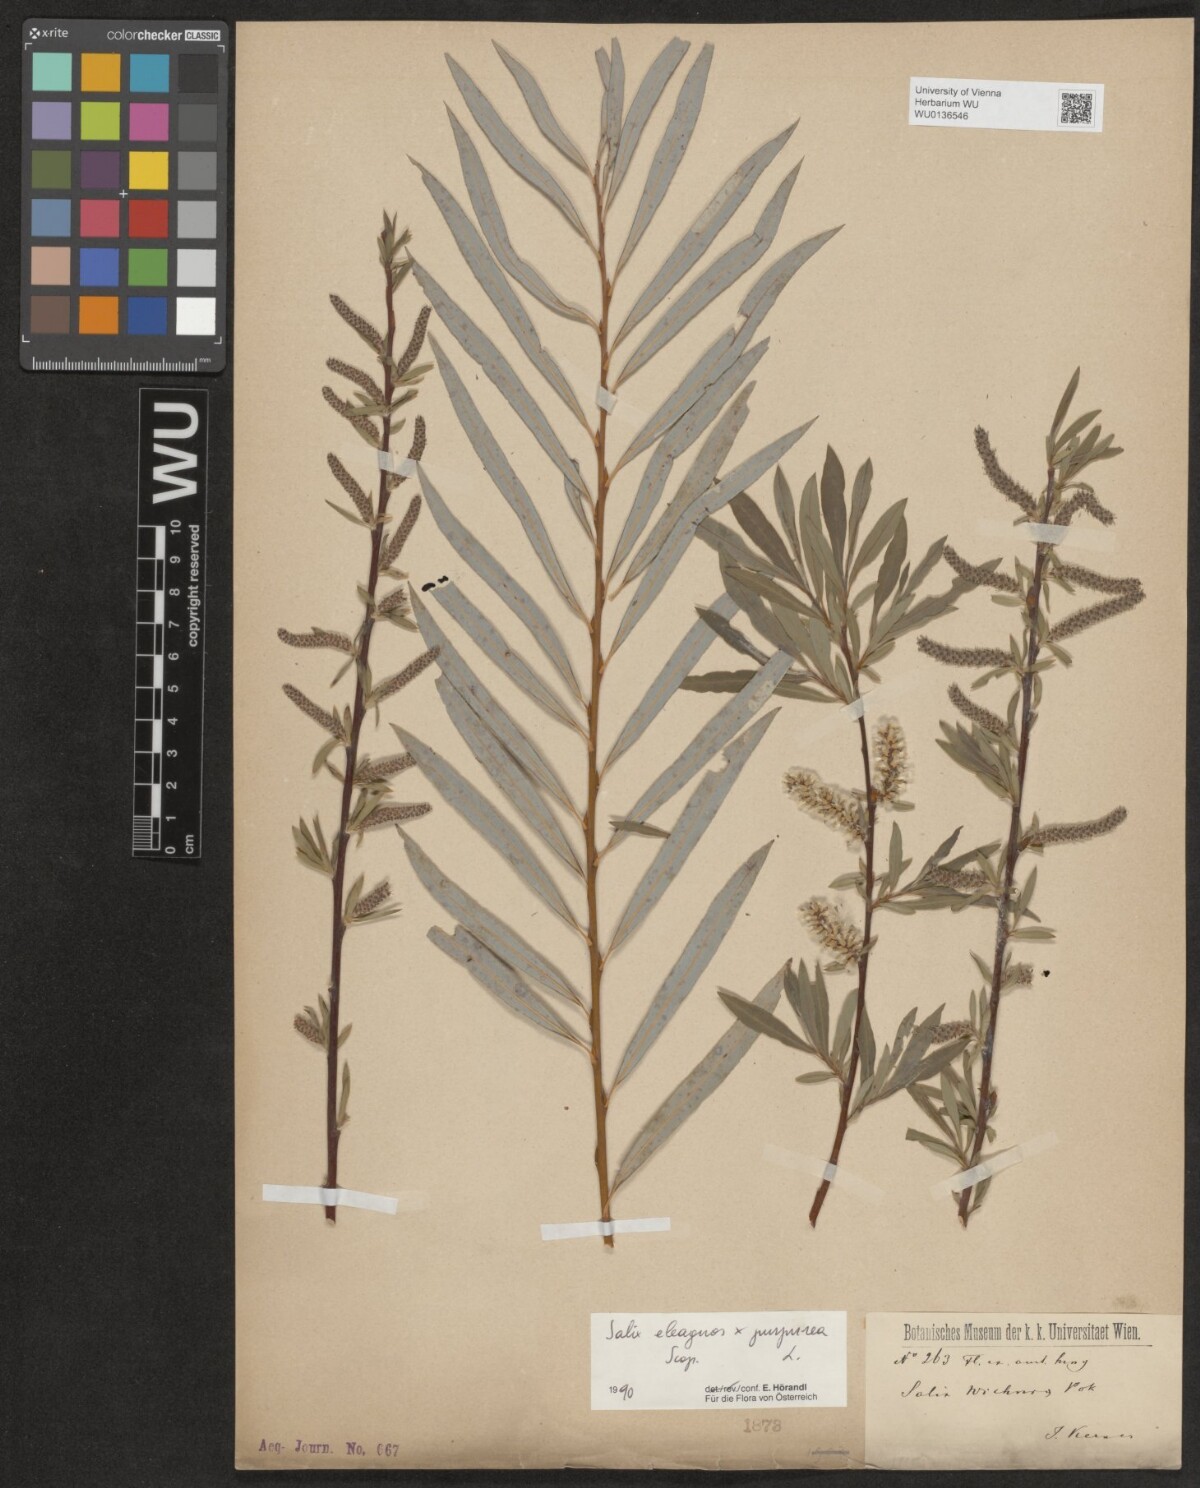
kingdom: Plantae
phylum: Tracheophyta
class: Magnoliopsida
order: Malpighiales
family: Salicaceae
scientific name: Salicaceae
